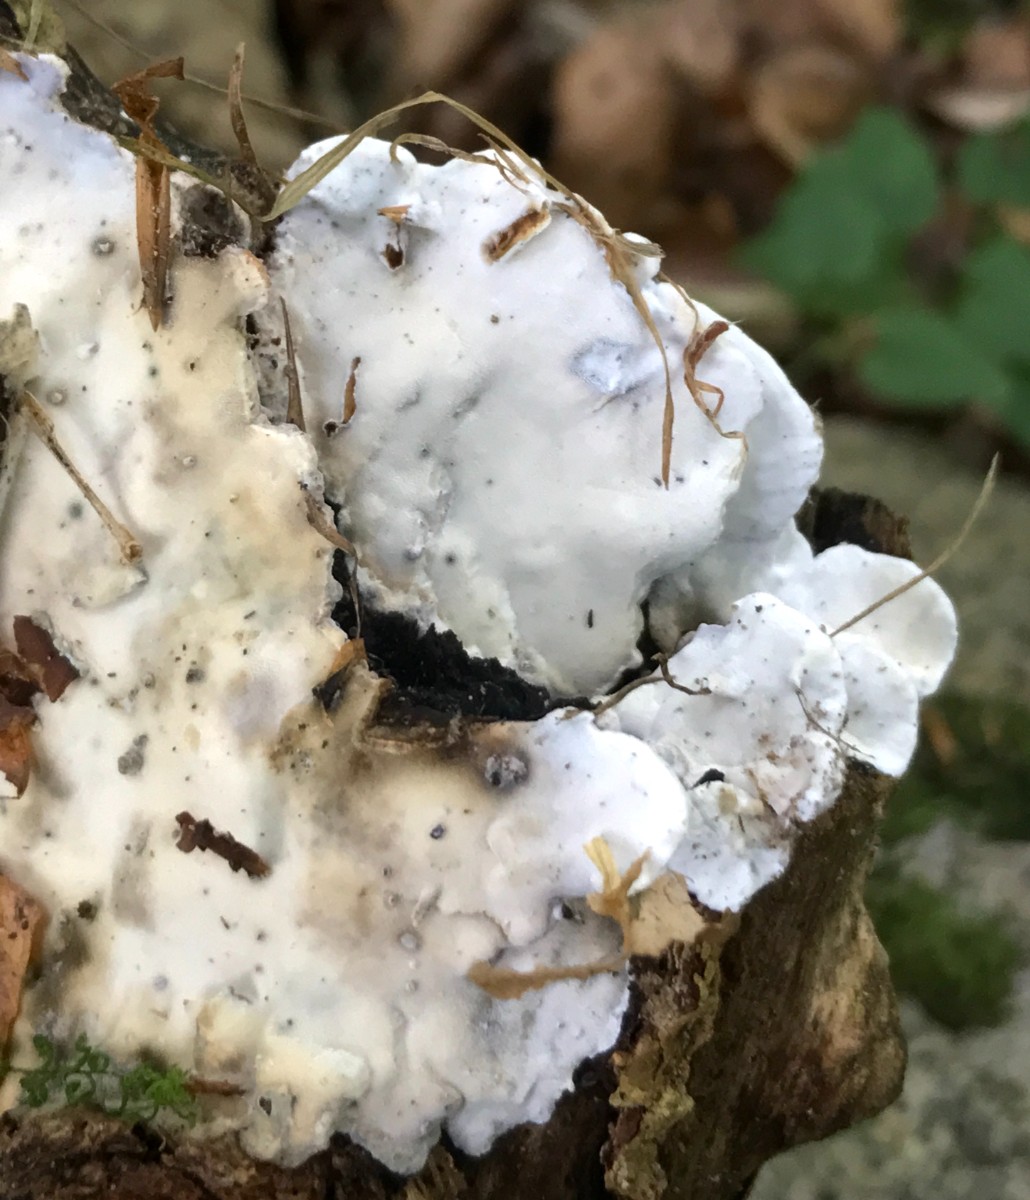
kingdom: Fungi
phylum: Basidiomycota
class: Agaricomycetes
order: Polyporales
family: Incrustoporiaceae
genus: Skeletocutis
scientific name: Skeletocutis nemoralis
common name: stor krystalporesvamp
